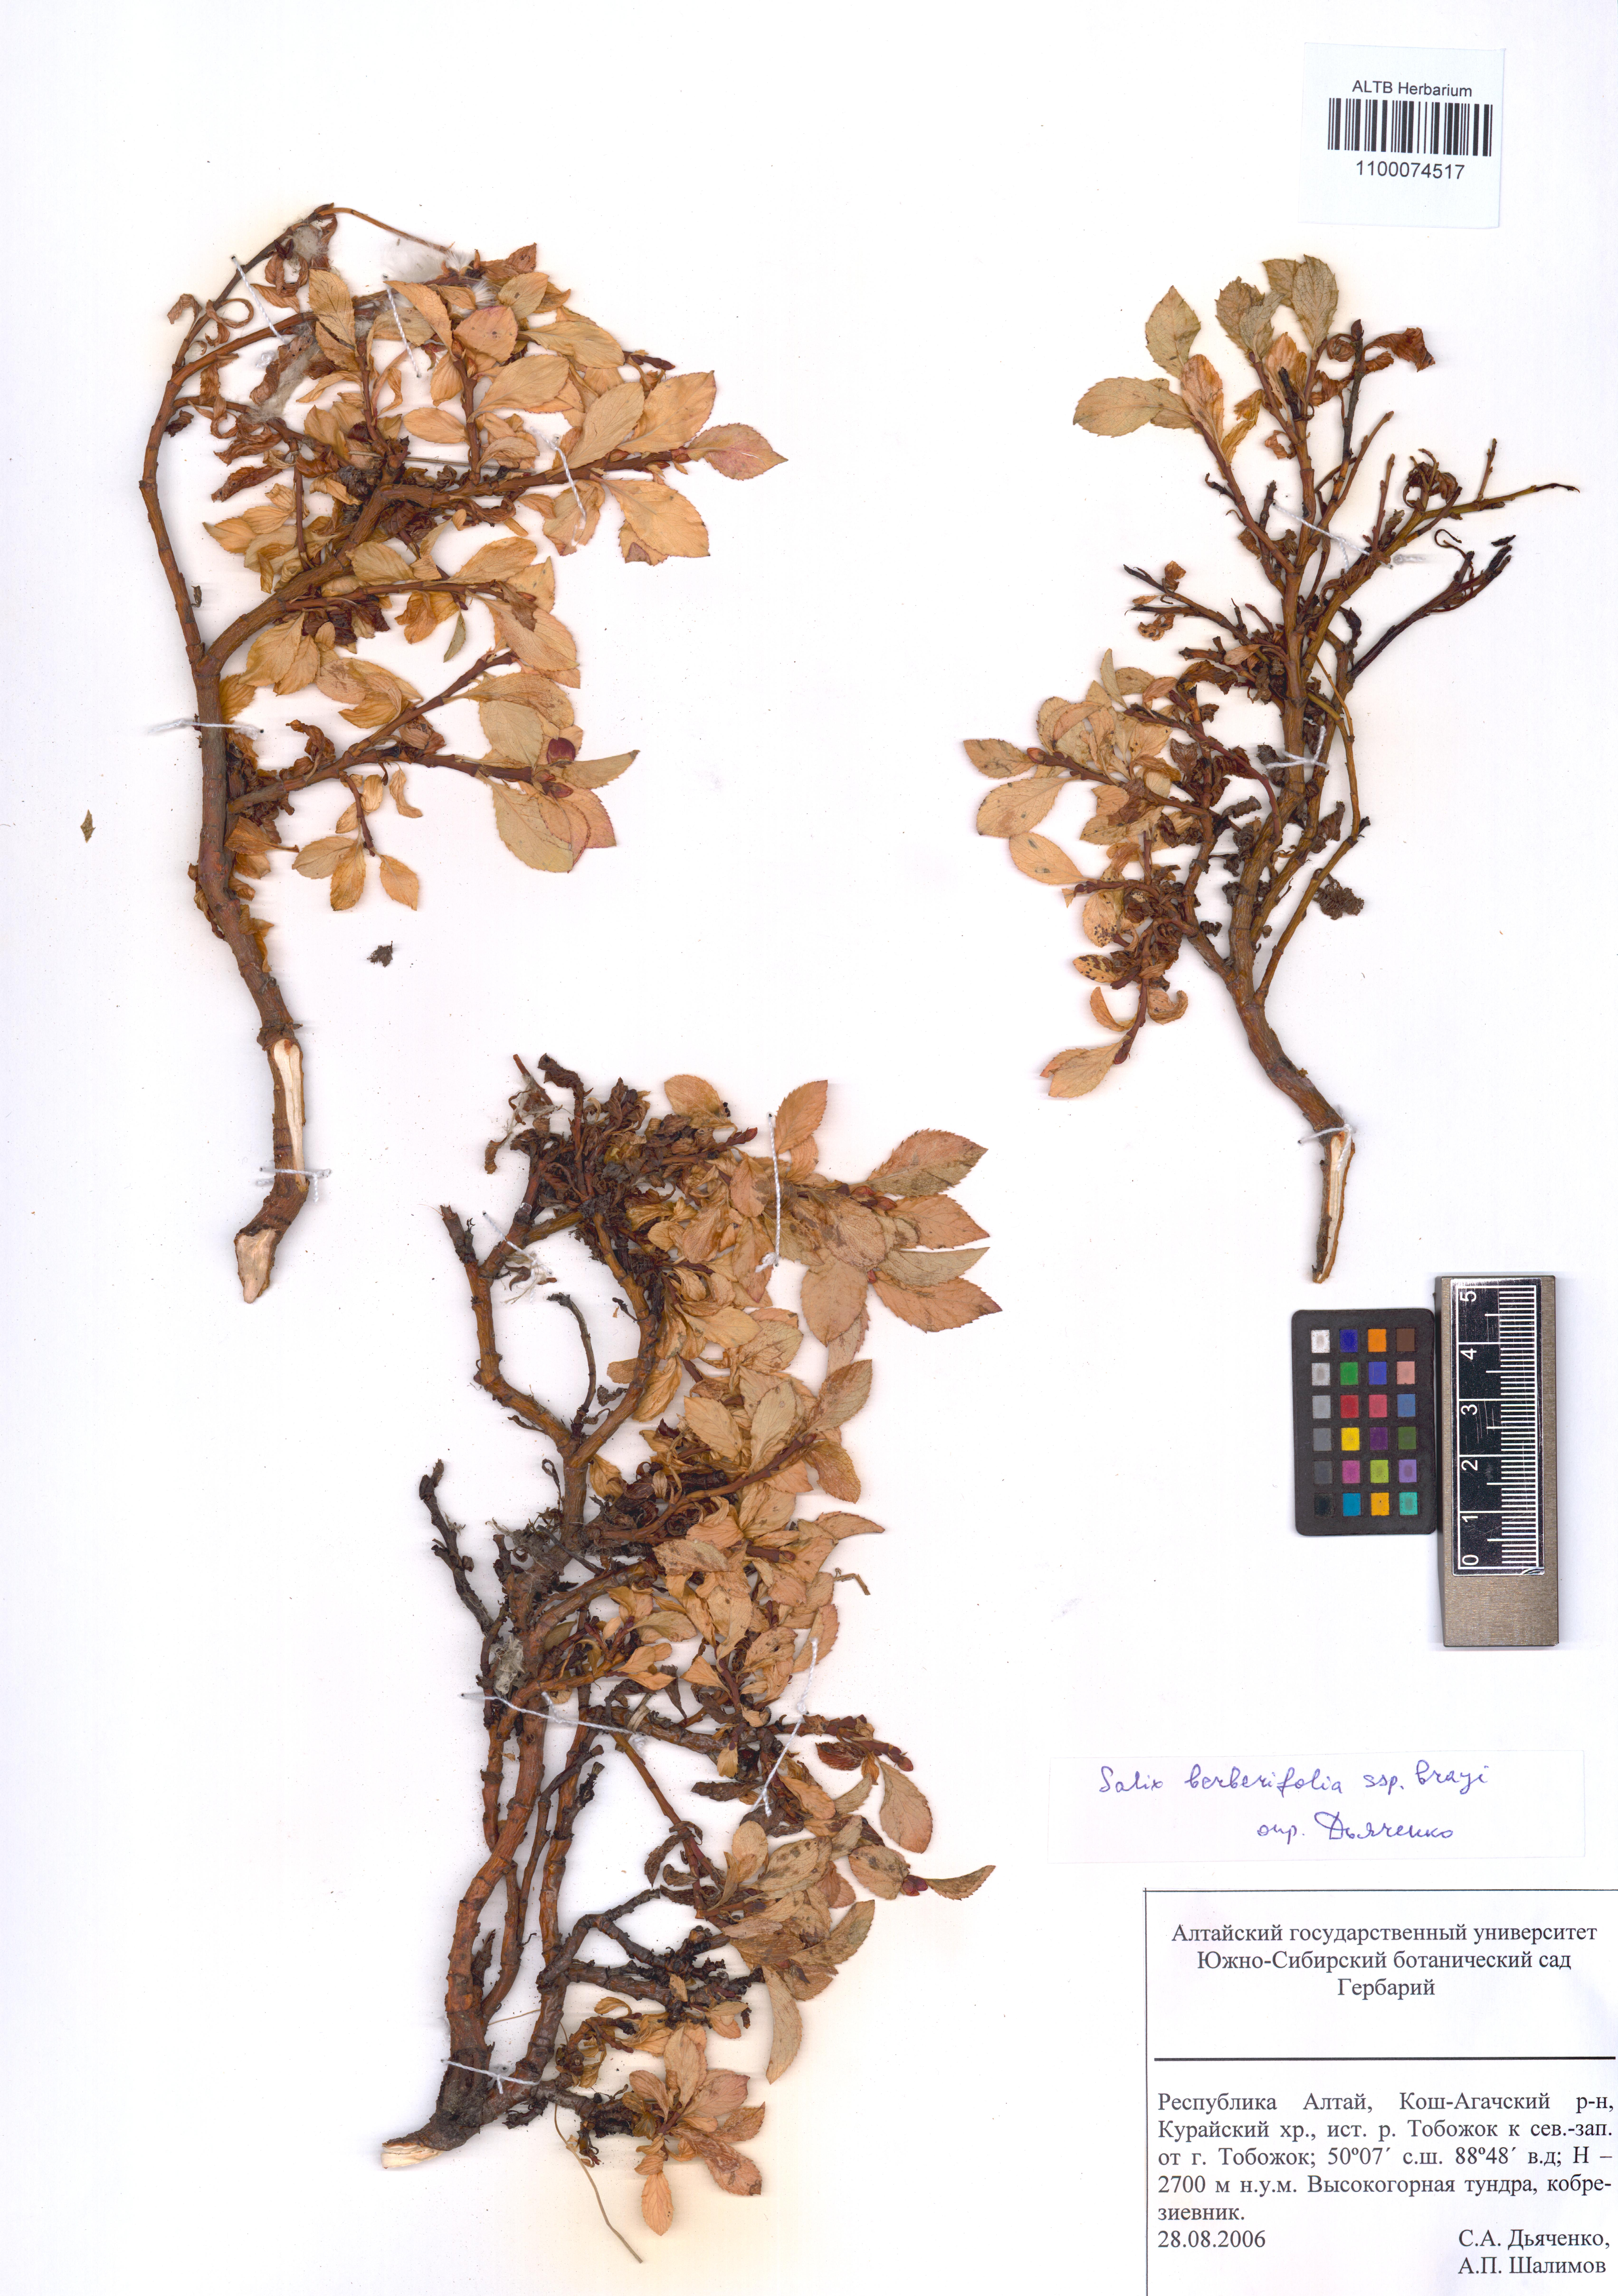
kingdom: Plantae
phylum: Tracheophyta
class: Magnoliopsida
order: Malpighiales
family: Salicaceae
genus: Salix
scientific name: Salix berberifolia
